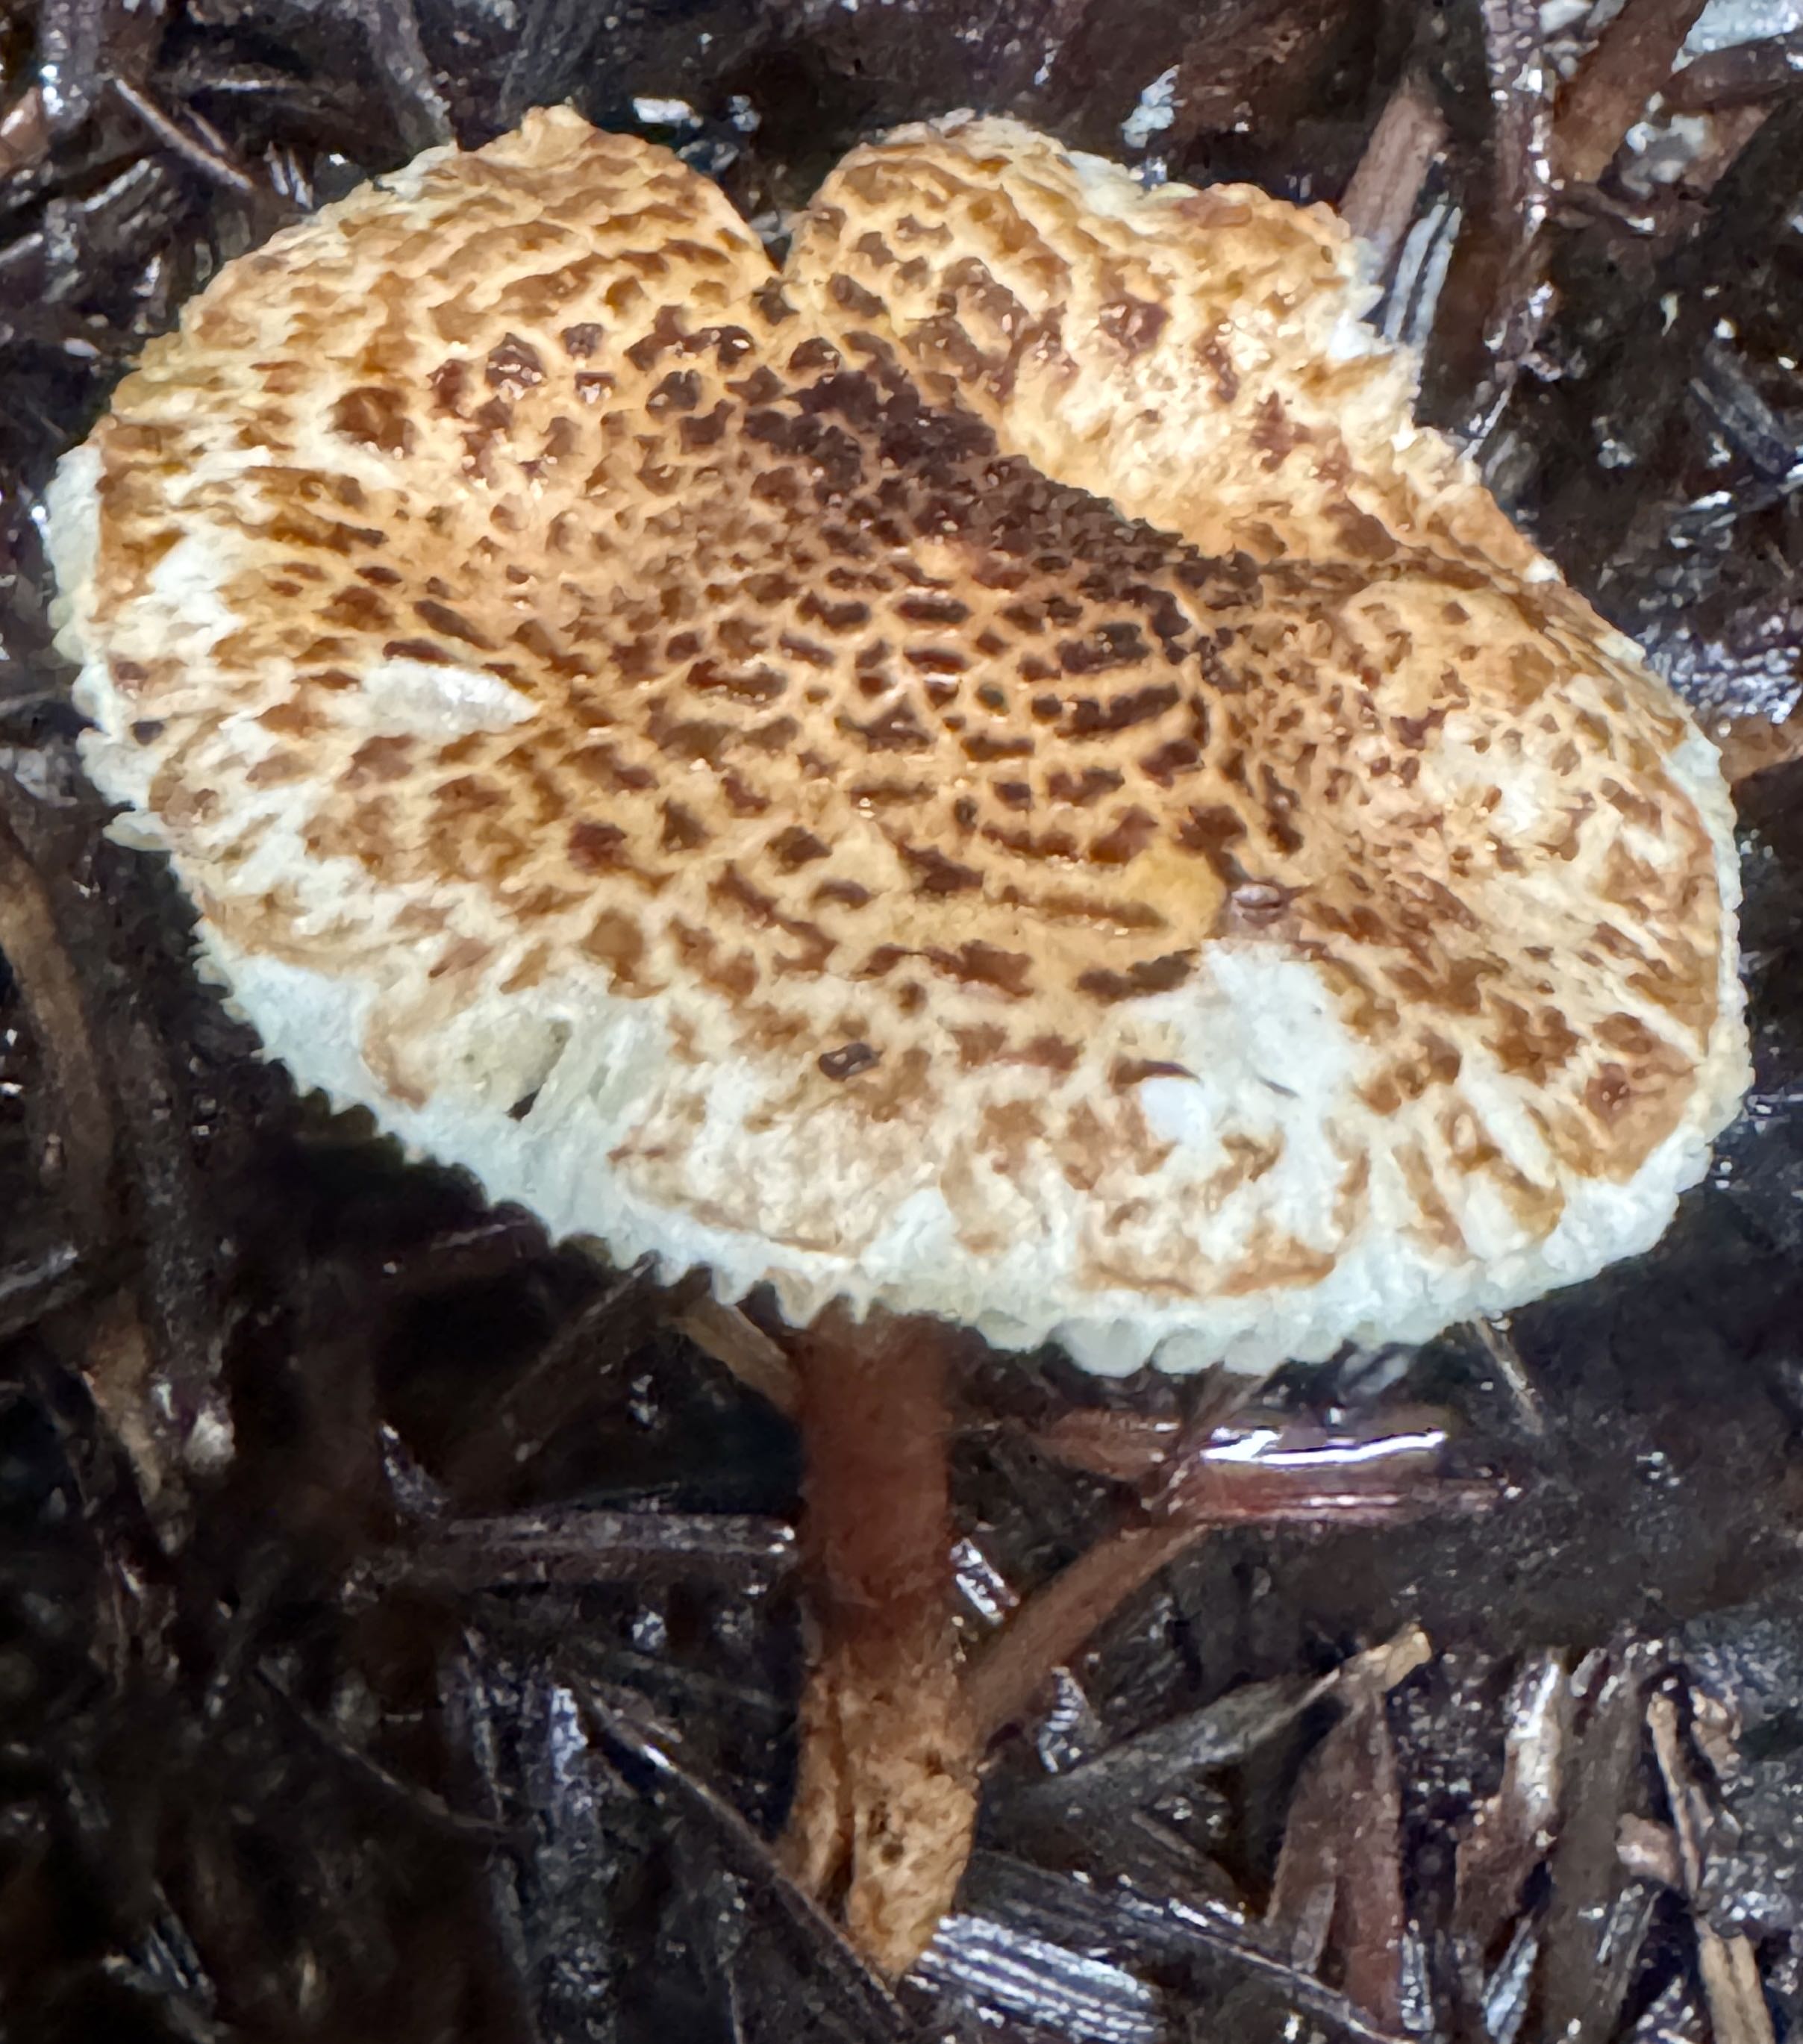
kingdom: Fungi
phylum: Basidiomycota
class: Agaricomycetes
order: Agaricales
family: Agaricaceae
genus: Lepiota
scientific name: Lepiota castanea
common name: kastaniebrun parasolhat
